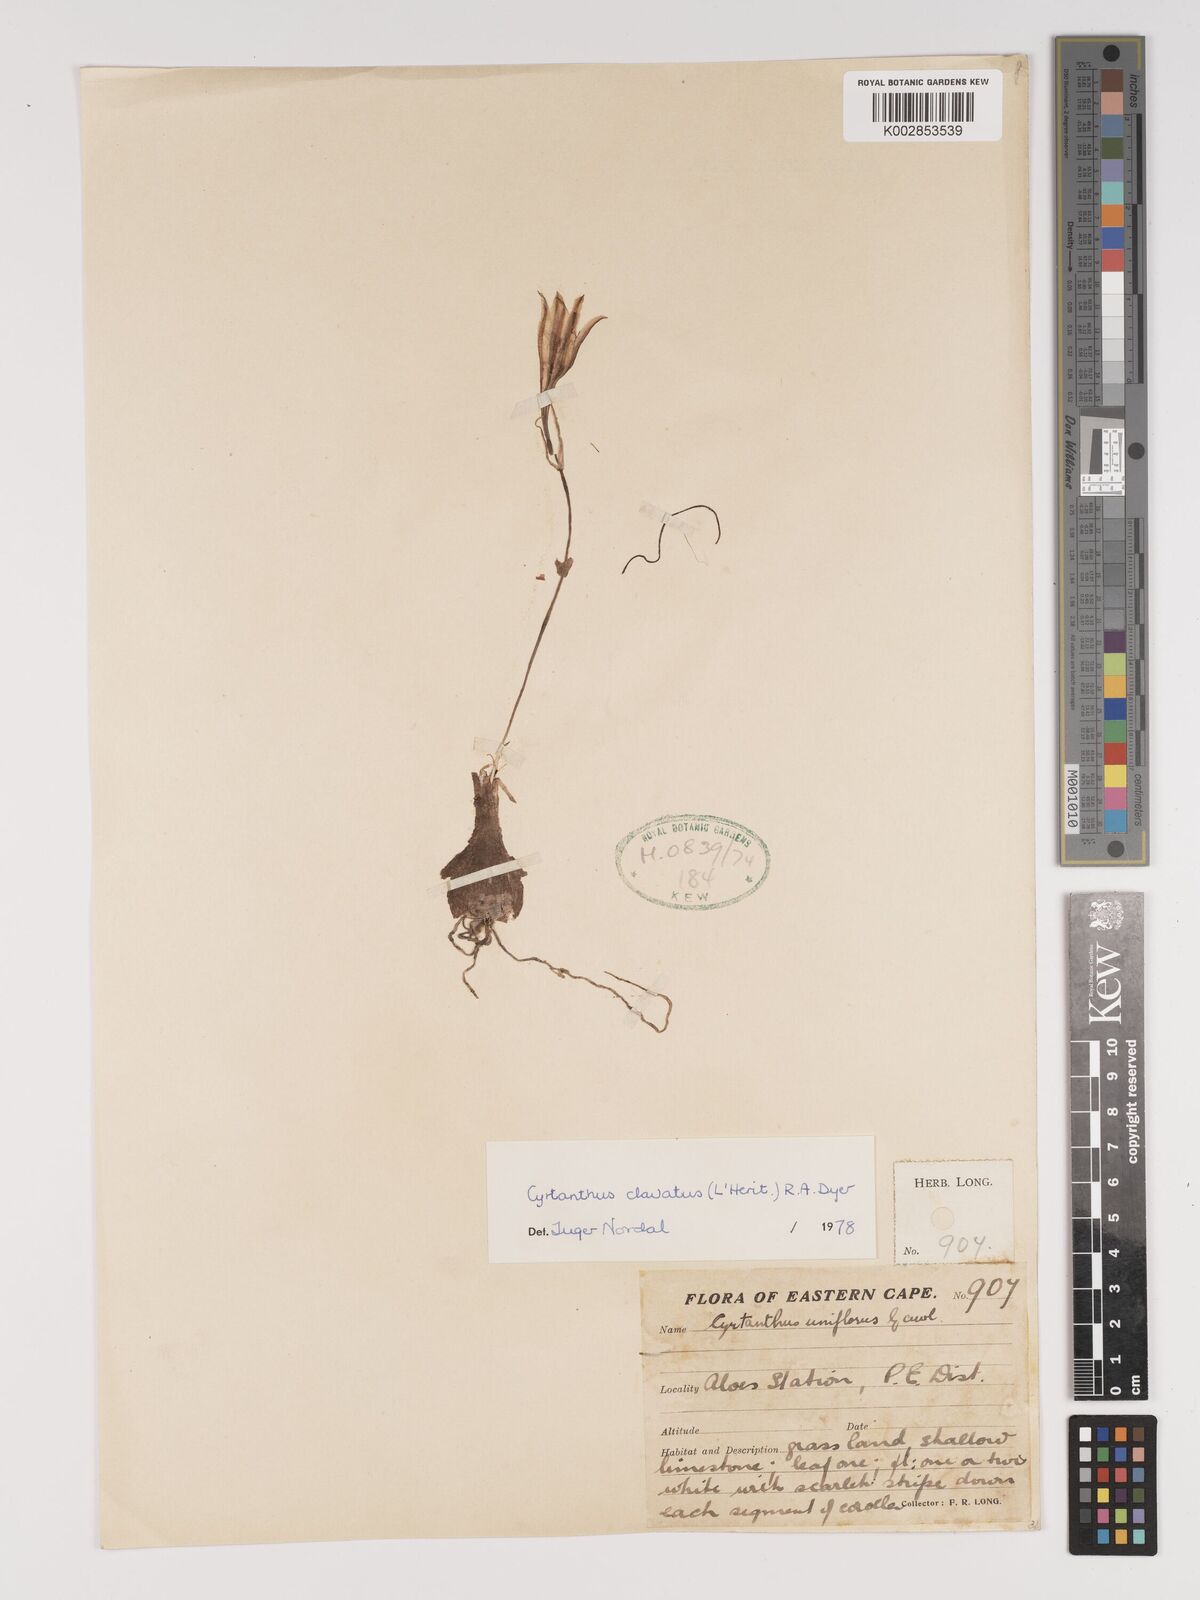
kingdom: Plantae
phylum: Tracheophyta
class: Liliopsida
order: Asparagales
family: Amaryllidaceae
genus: Cyrtanthus
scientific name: Cyrtanthus clavatus
